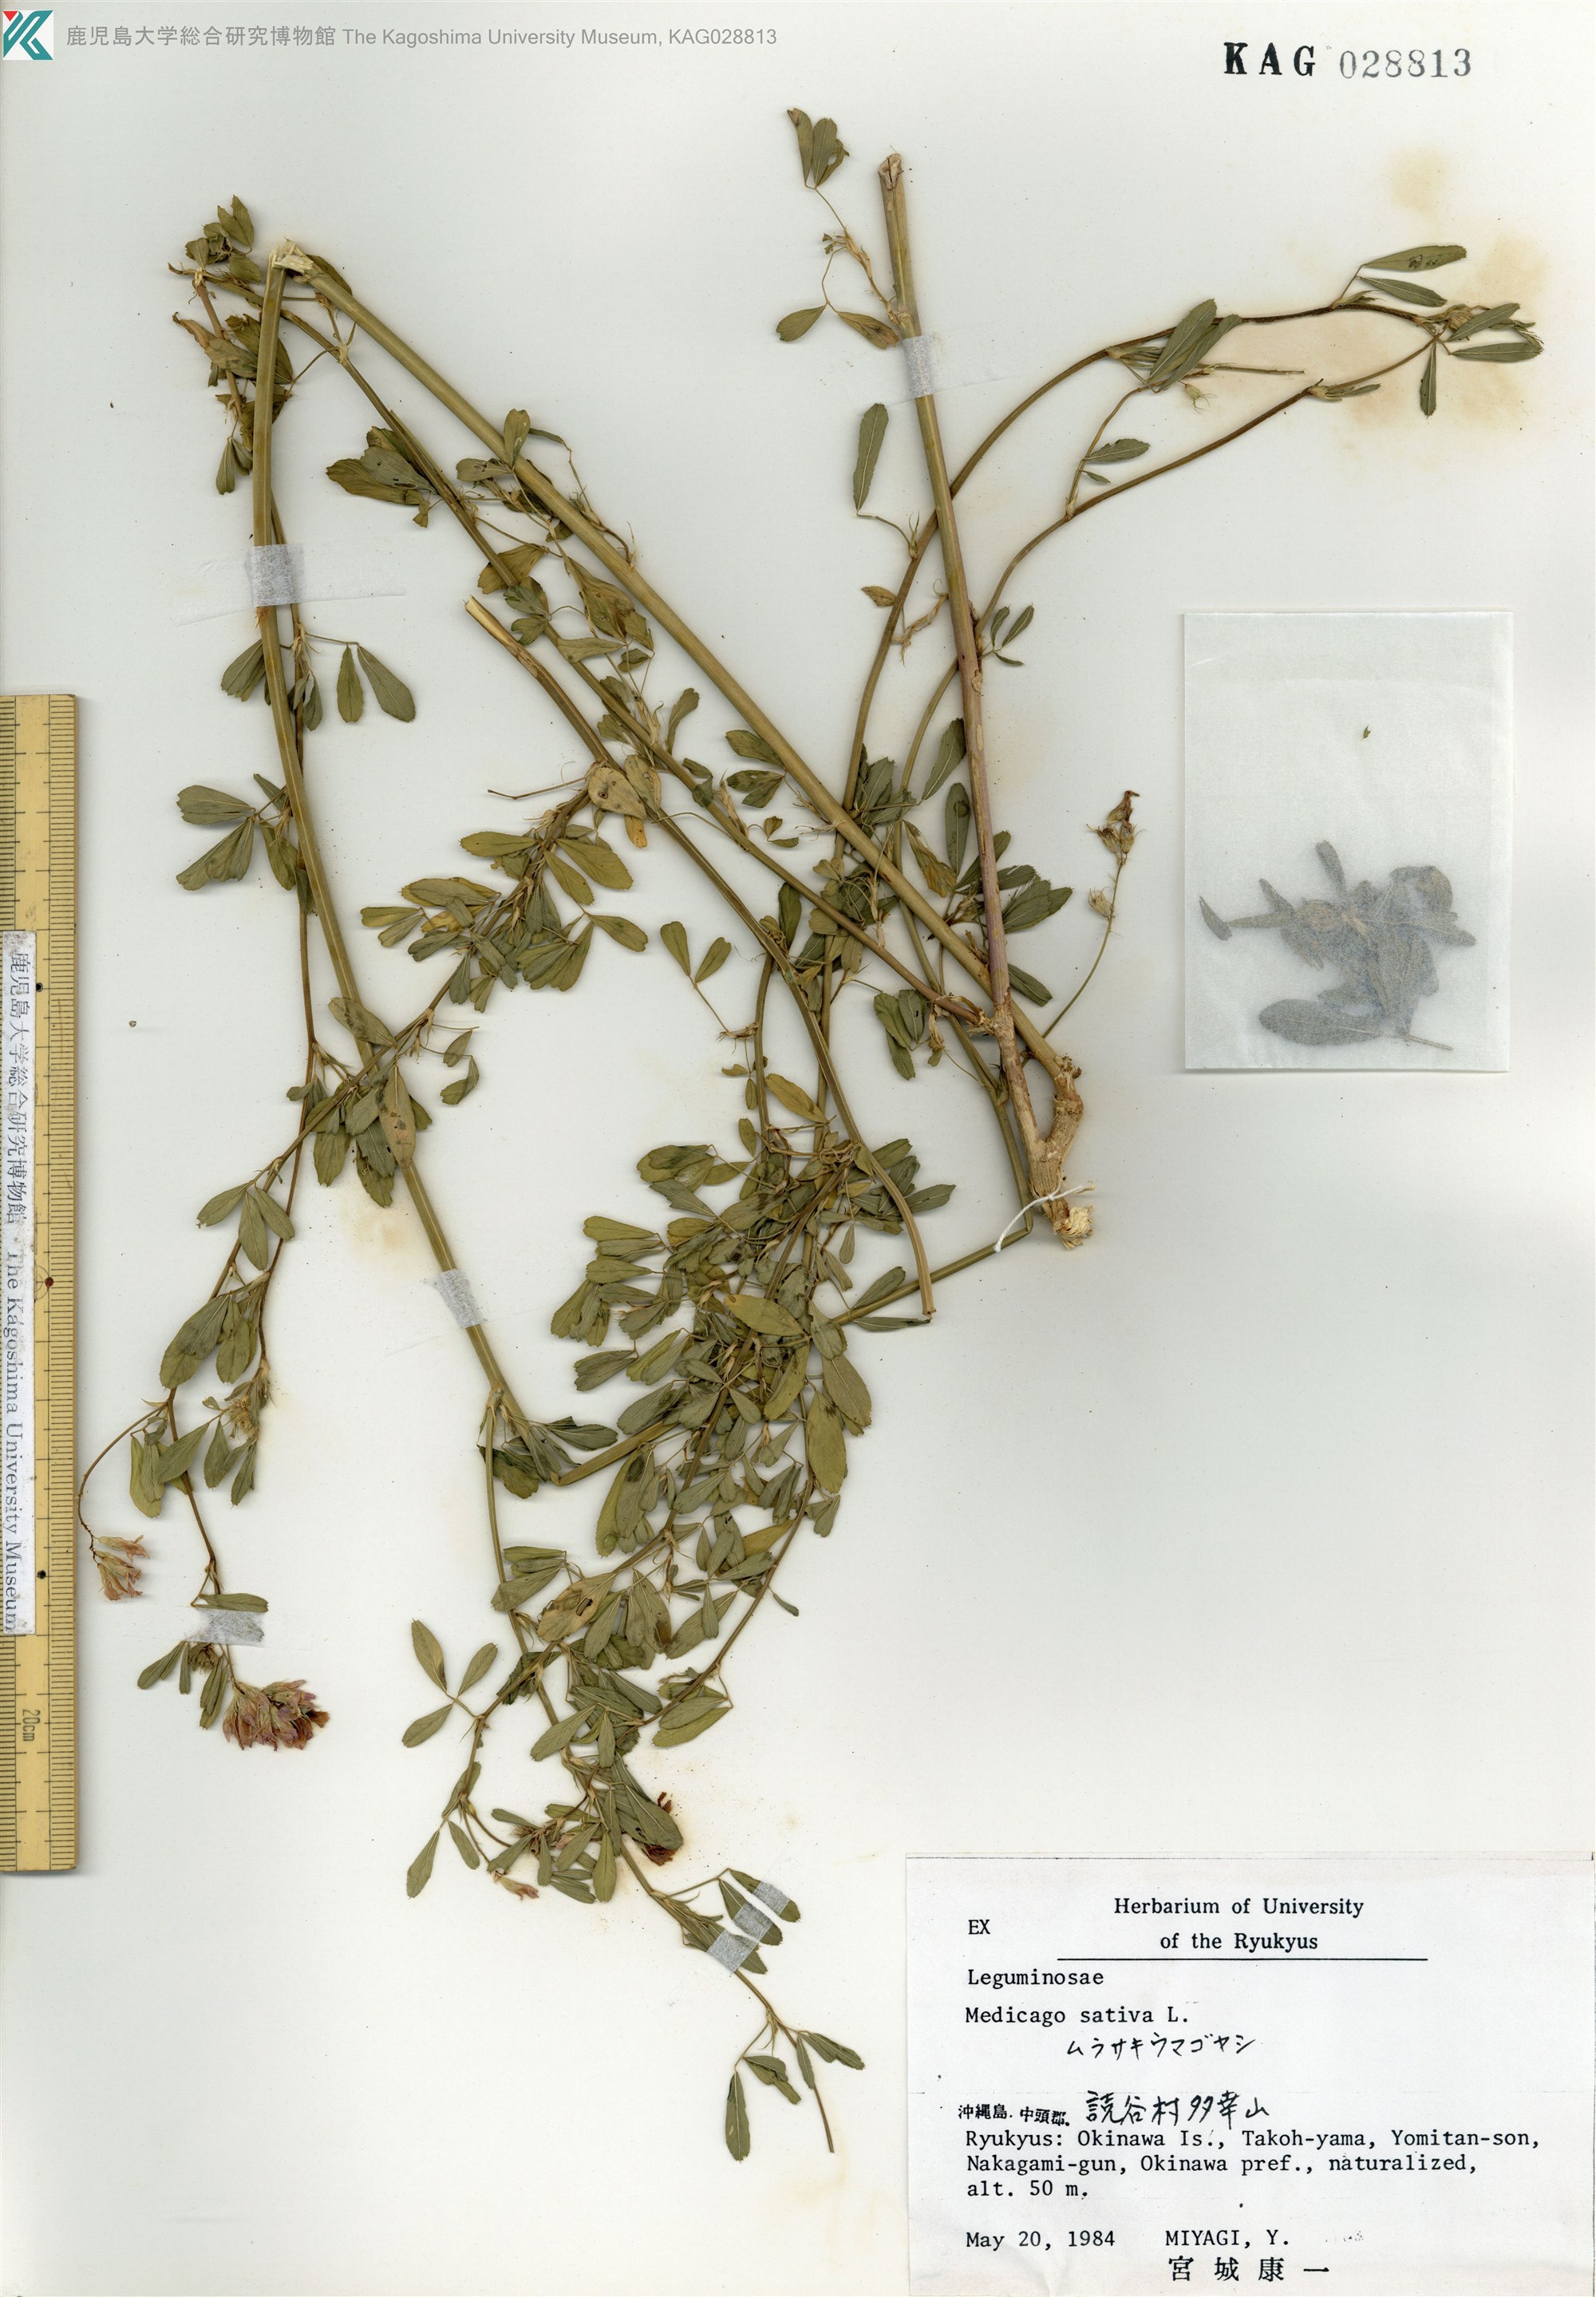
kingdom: Plantae
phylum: Tracheophyta
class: Magnoliopsida
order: Fabales
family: Fabaceae
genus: Medicago
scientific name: Medicago sativa
